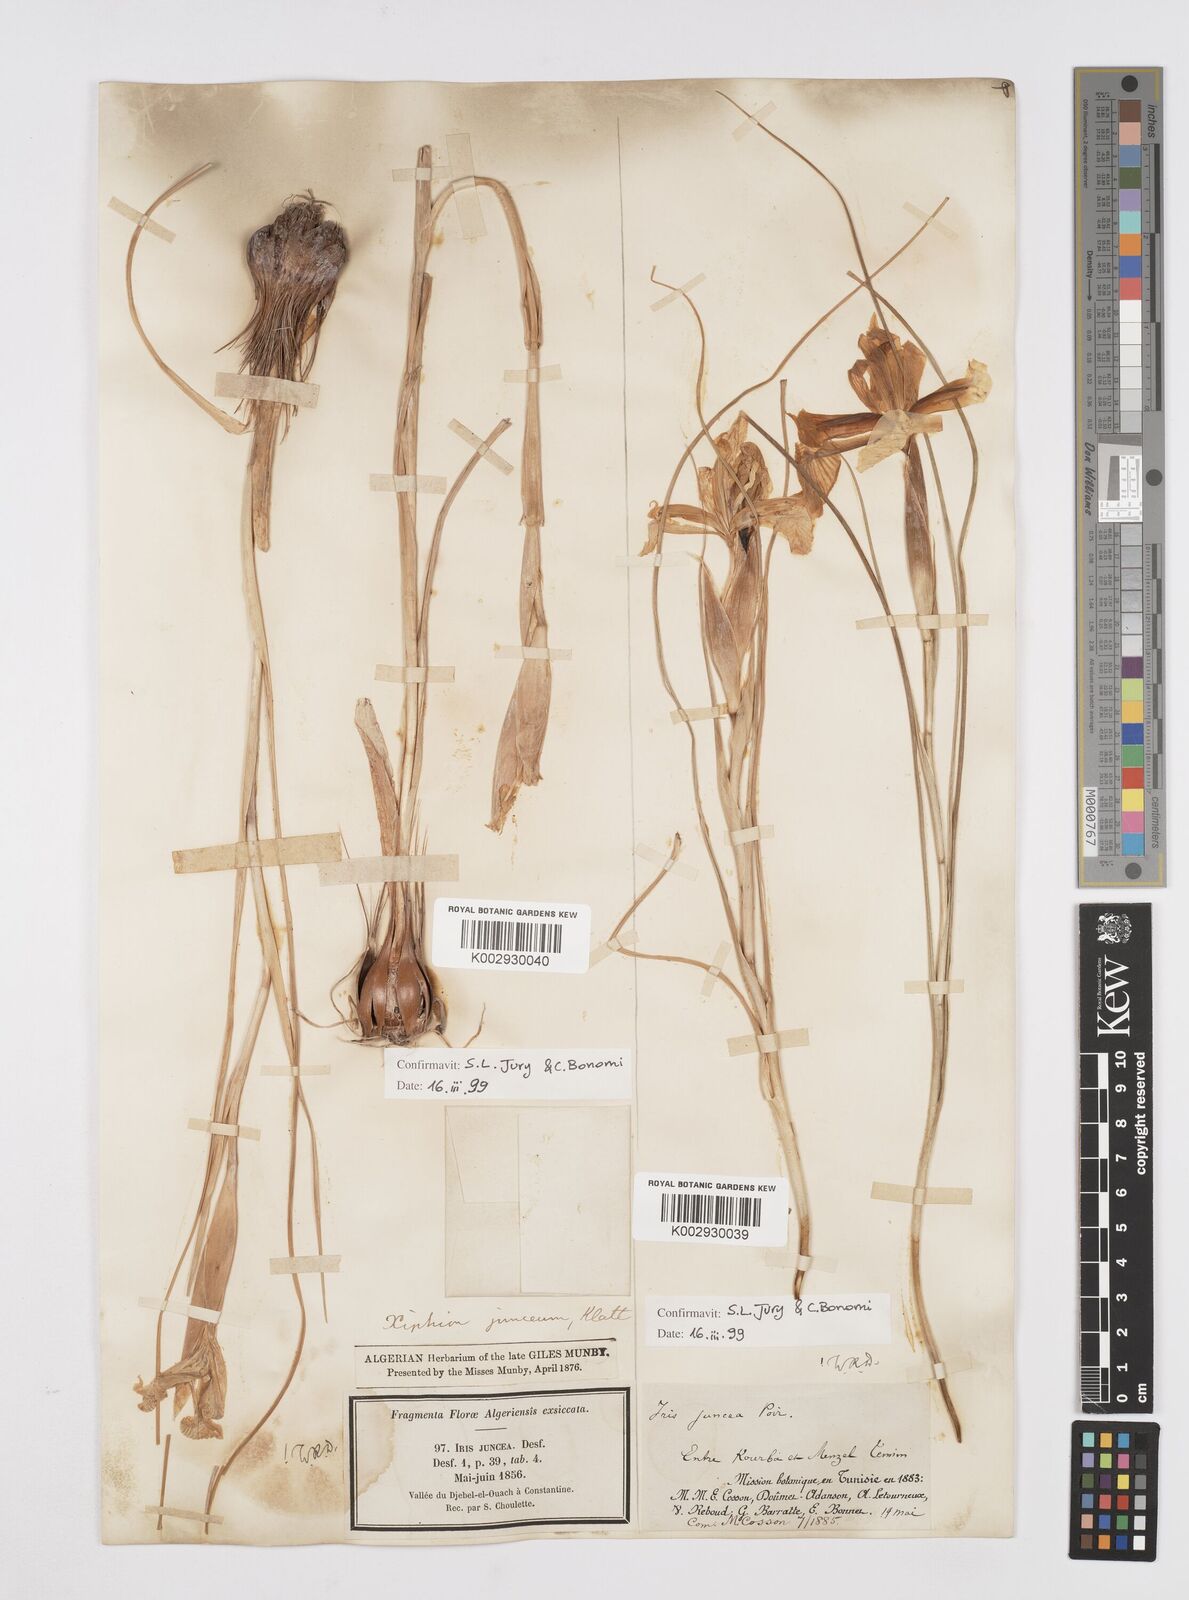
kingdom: Plantae
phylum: Tracheophyta
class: Liliopsida
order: Asparagales
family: Iridaceae
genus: Iris
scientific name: Iris juncea
